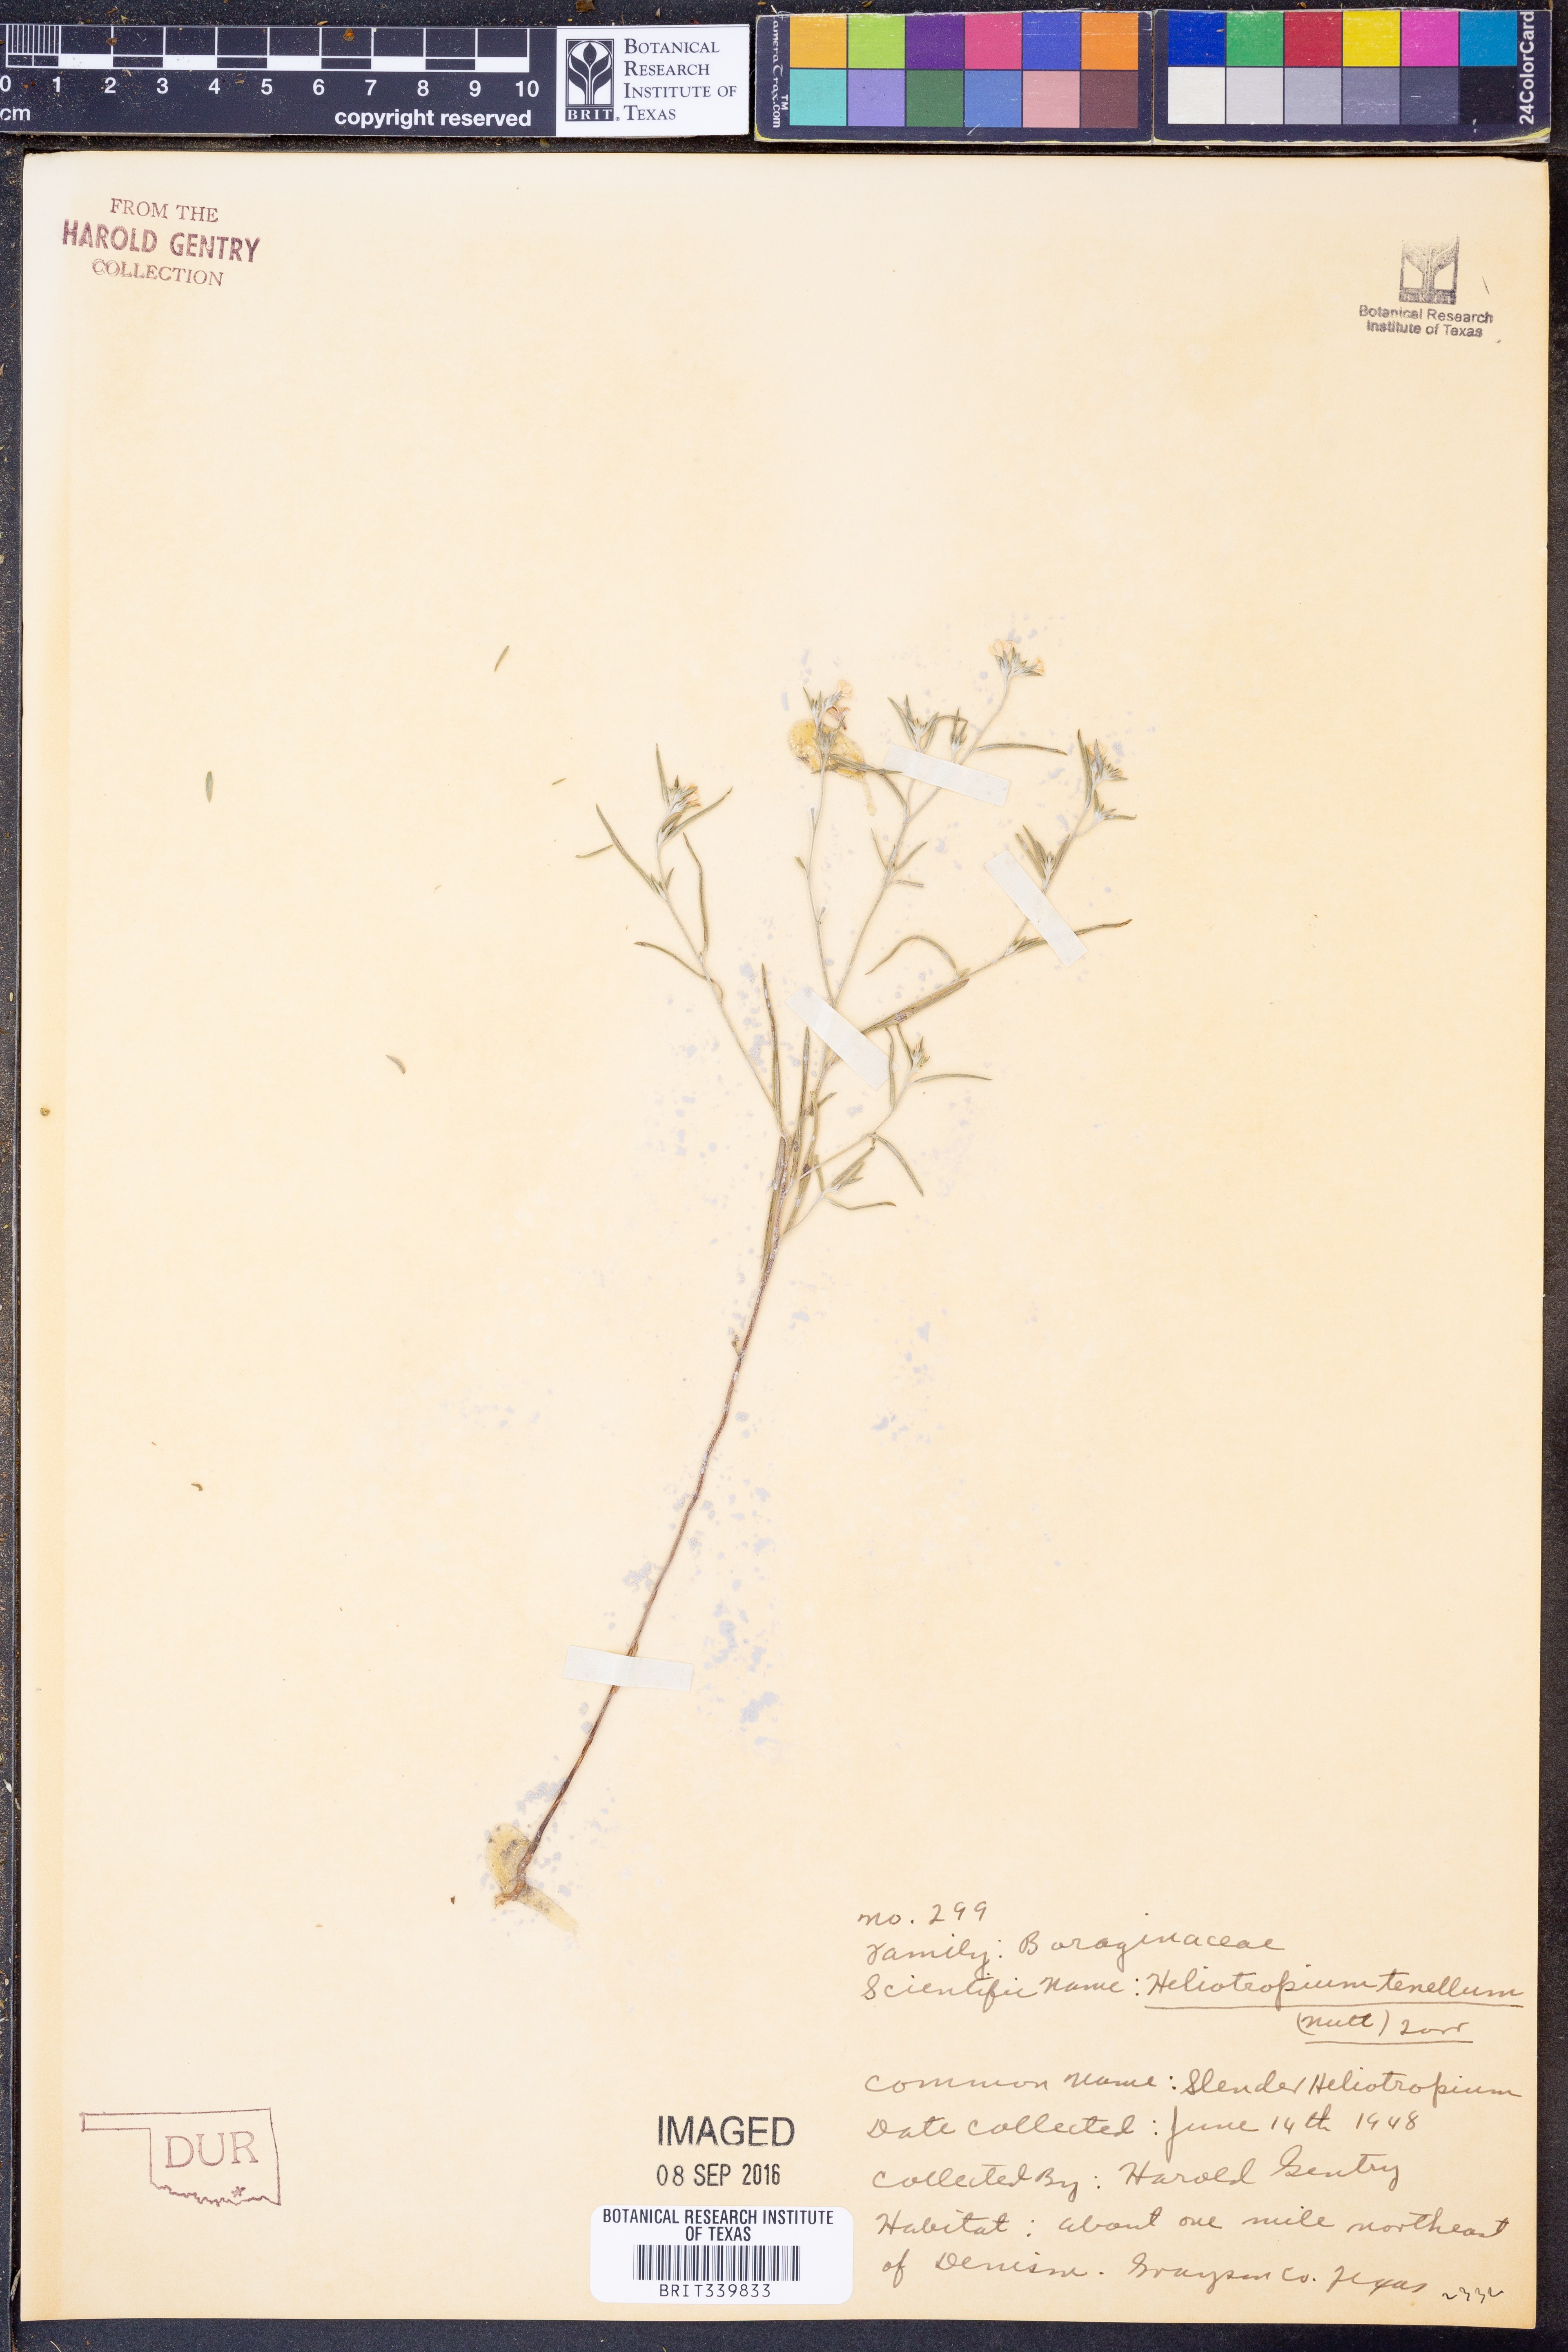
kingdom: Plantae
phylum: Tracheophyta
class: Magnoliopsida
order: Boraginales
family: Heliotropiaceae
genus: Euploca
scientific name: Euploca tenella
